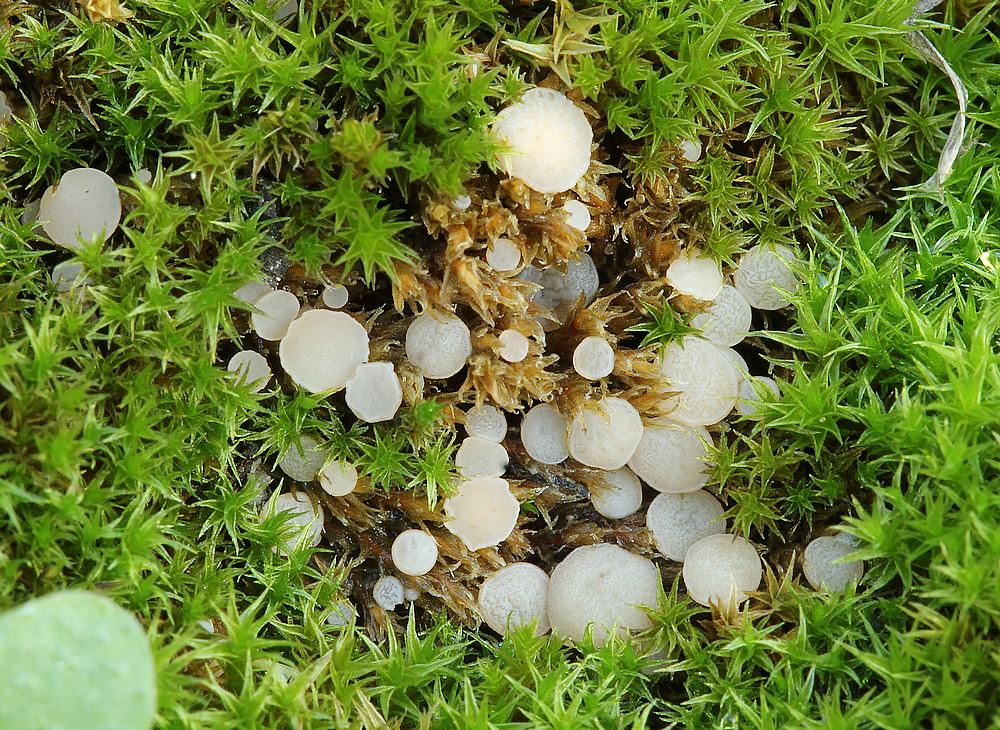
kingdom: Fungi
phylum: Ascomycota
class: Leotiomycetes
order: Helotiales
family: Helotiaceae
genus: Bryoscyphus
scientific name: Bryoscyphus dicrani
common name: bladmos-stilkskive
